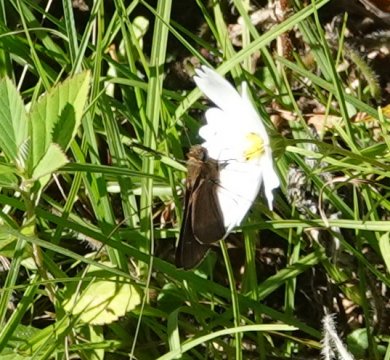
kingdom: Animalia
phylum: Arthropoda
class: Insecta
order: Lepidoptera
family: Hesperiidae
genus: Panoquina
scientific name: Panoquina ocola
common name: Ocola Skipper
